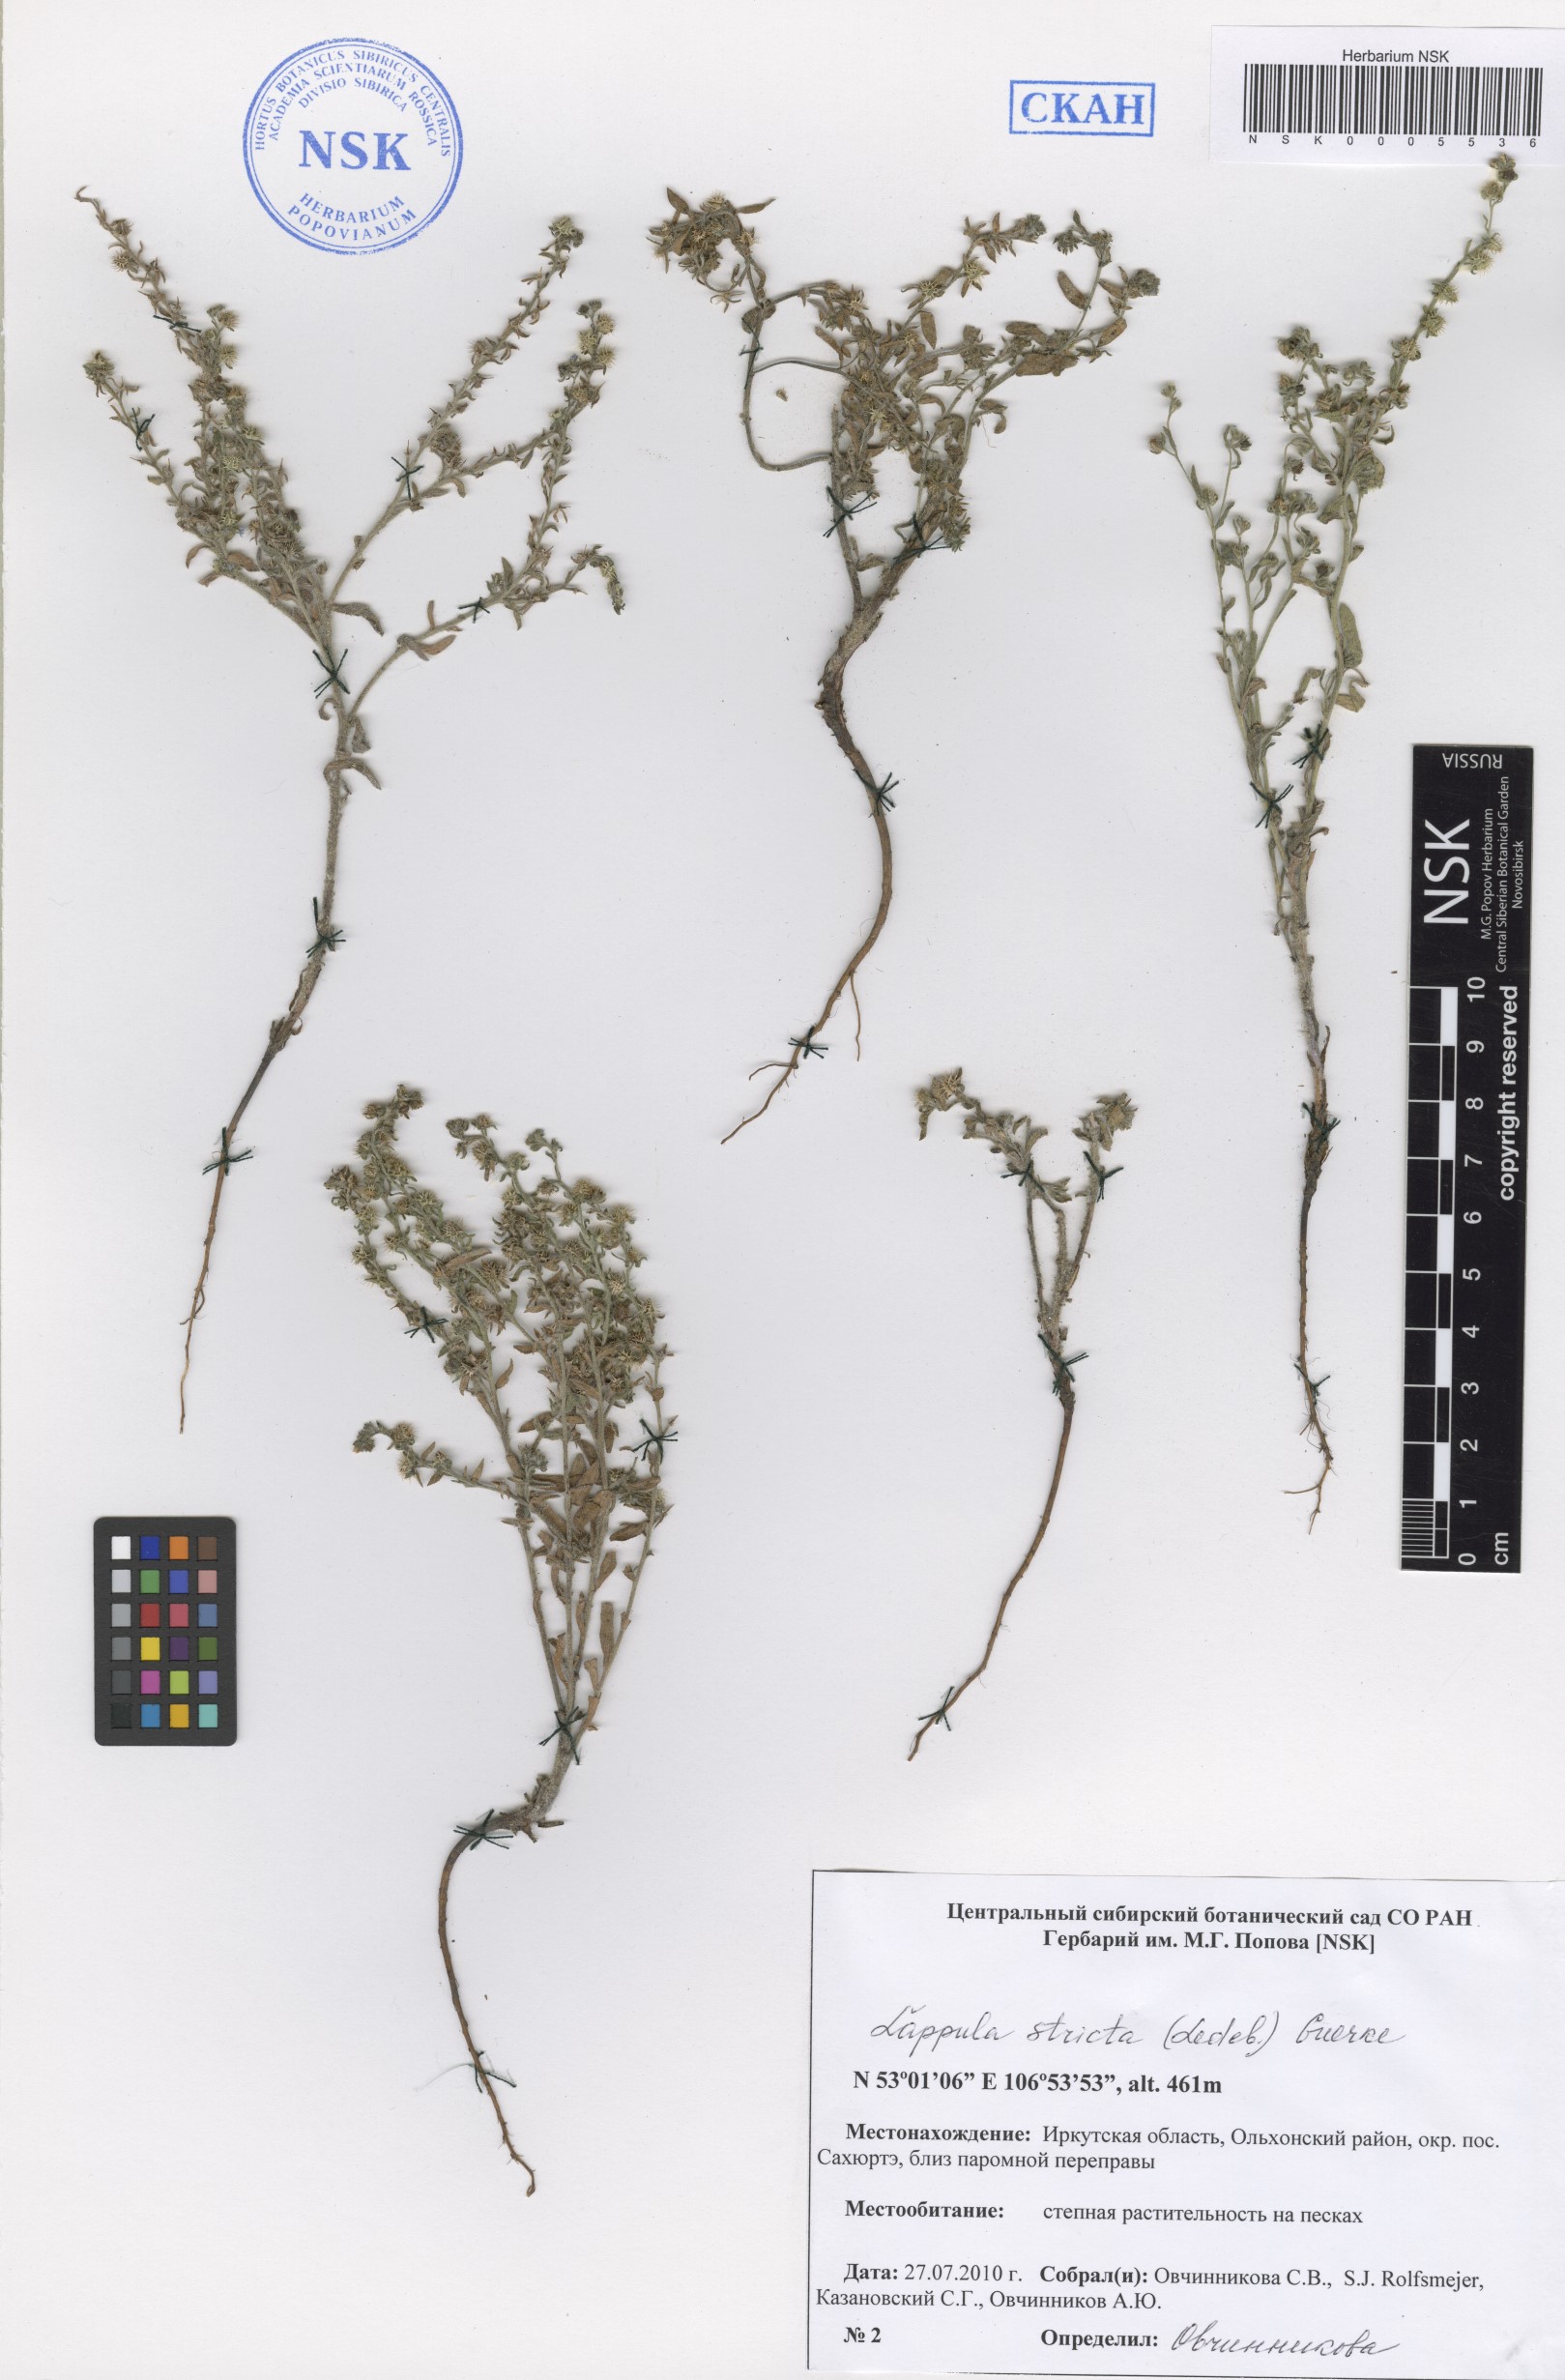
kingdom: Plantae
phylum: Tracheophyta
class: Magnoliopsida
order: Boraginales
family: Boraginaceae
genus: Lappula
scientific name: Lappula stricta
